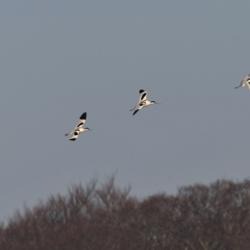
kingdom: Animalia
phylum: Chordata
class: Aves
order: Charadriiformes
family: Recurvirostridae
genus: Recurvirostra
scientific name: Recurvirostra avosetta
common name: Klyde
